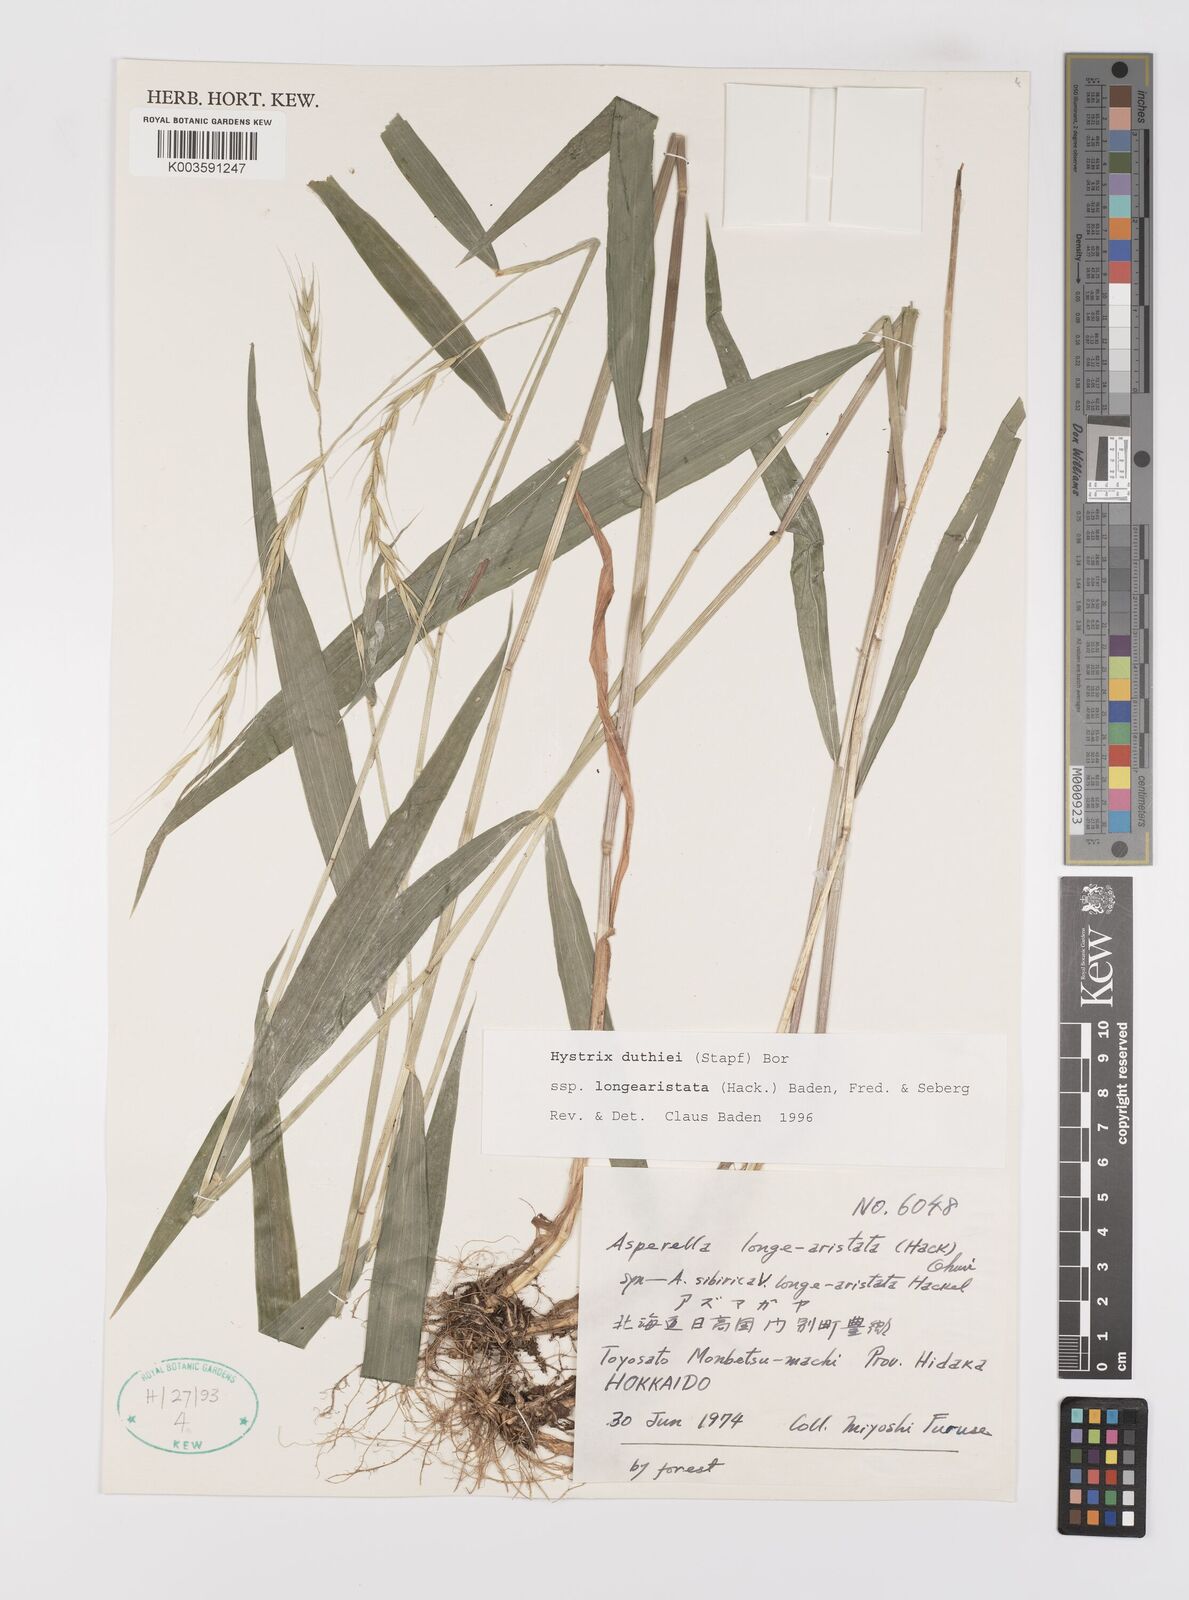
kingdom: Plantae
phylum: Tracheophyta
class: Liliopsida
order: Poales
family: Poaceae
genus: Leymus
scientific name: Leymus duthiei
